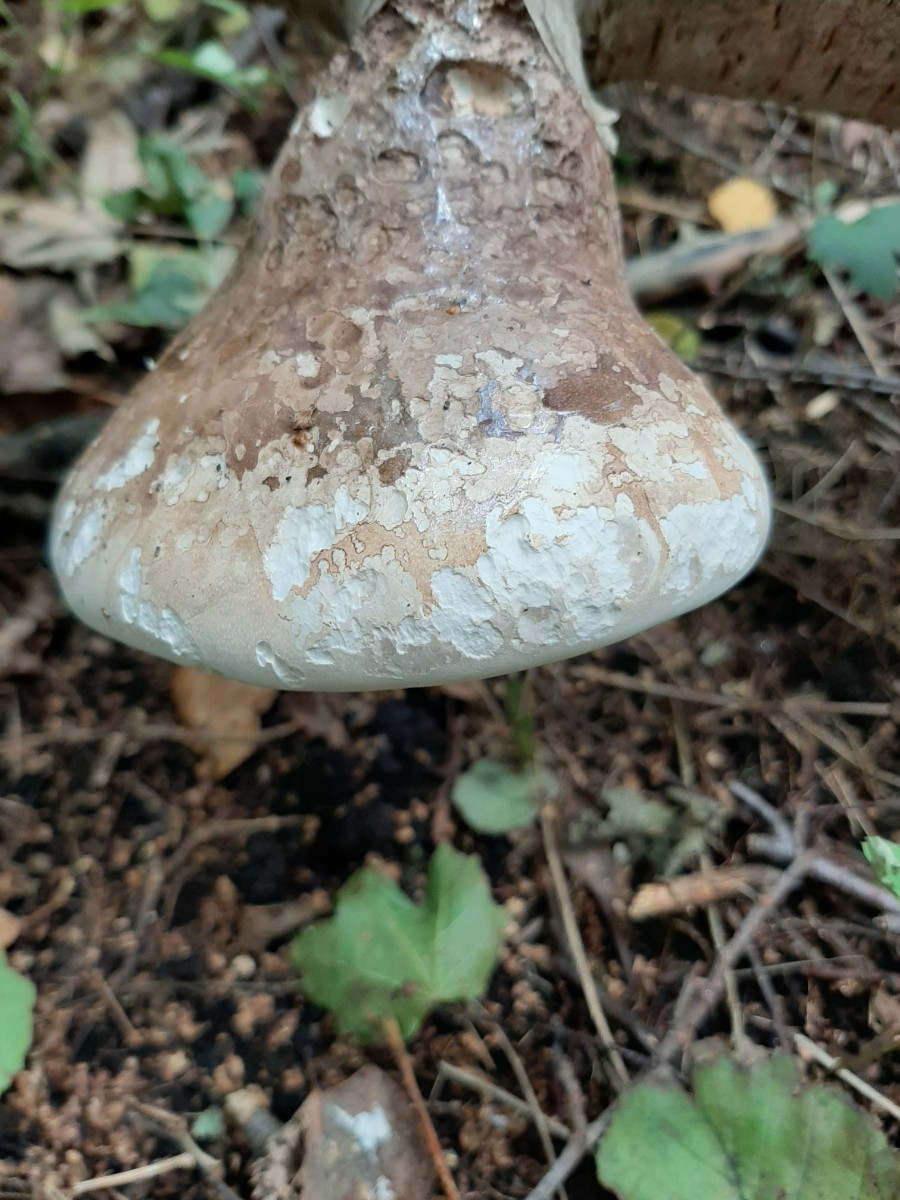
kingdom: Fungi
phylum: Basidiomycota
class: Agaricomycetes
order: Polyporales
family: Fomitopsidaceae
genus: Fomitopsis
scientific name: Fomitopsis betulina
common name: birkeporesvamp
